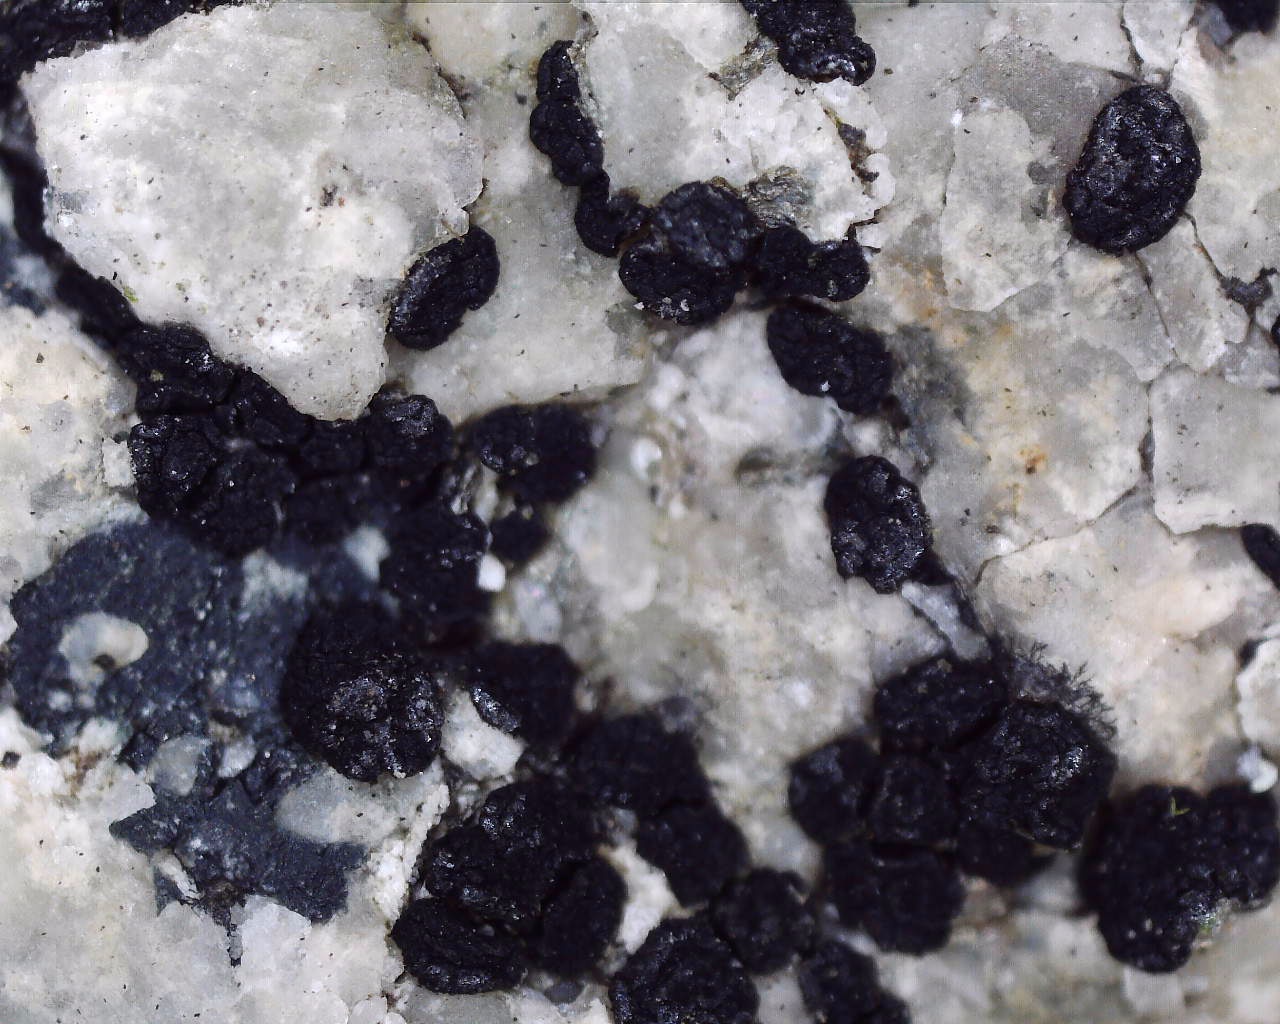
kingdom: Fungi
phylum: Ascomycota
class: Lecanoromycetes
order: Acarosporales
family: Acarosporaceae
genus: Acarospora
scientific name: Acarospora privigna
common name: sort foldekantlav
